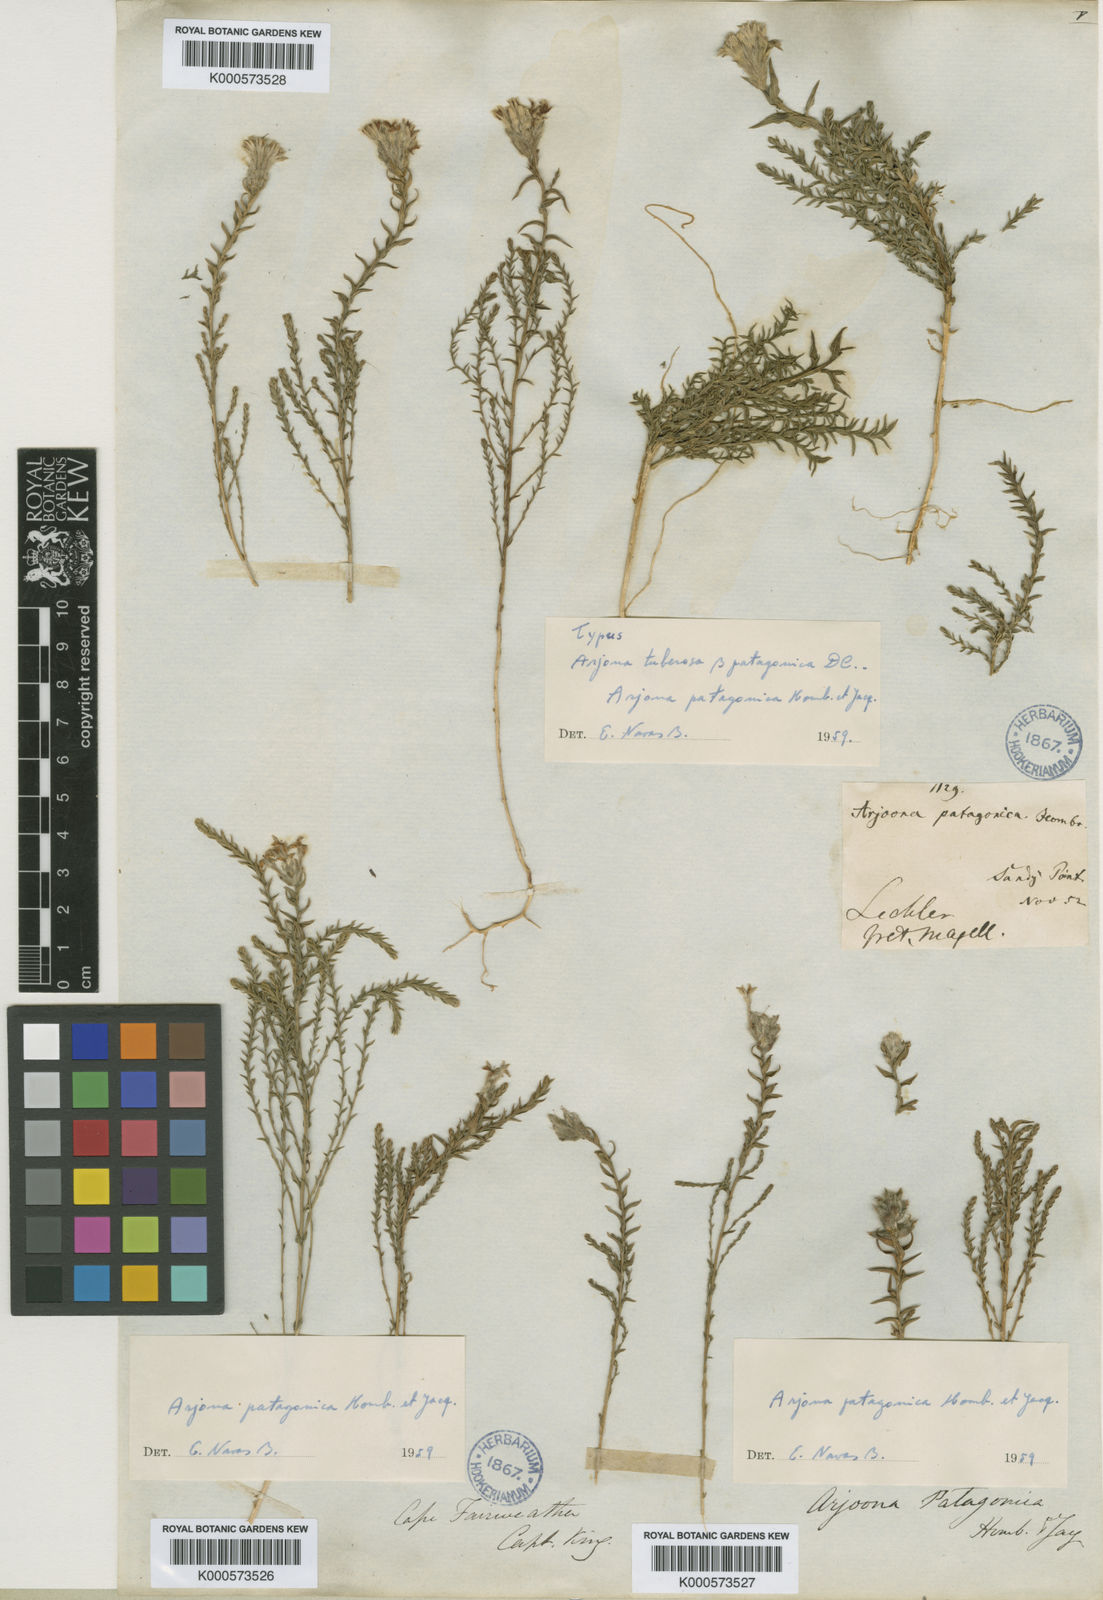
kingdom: Plantae
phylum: Tracheophyta
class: Magnoliopsida
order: Santalales
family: Schoepfiaceae
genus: Arjona
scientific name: Arjona patagonica
